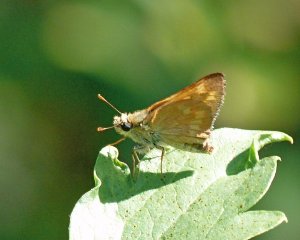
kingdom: Animalia
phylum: Arthropoda
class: Insecta
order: Lepidoptera
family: Hesperiidae
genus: Ochlodes
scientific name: Ochlodes sylvanoides
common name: Woodland Skipper
